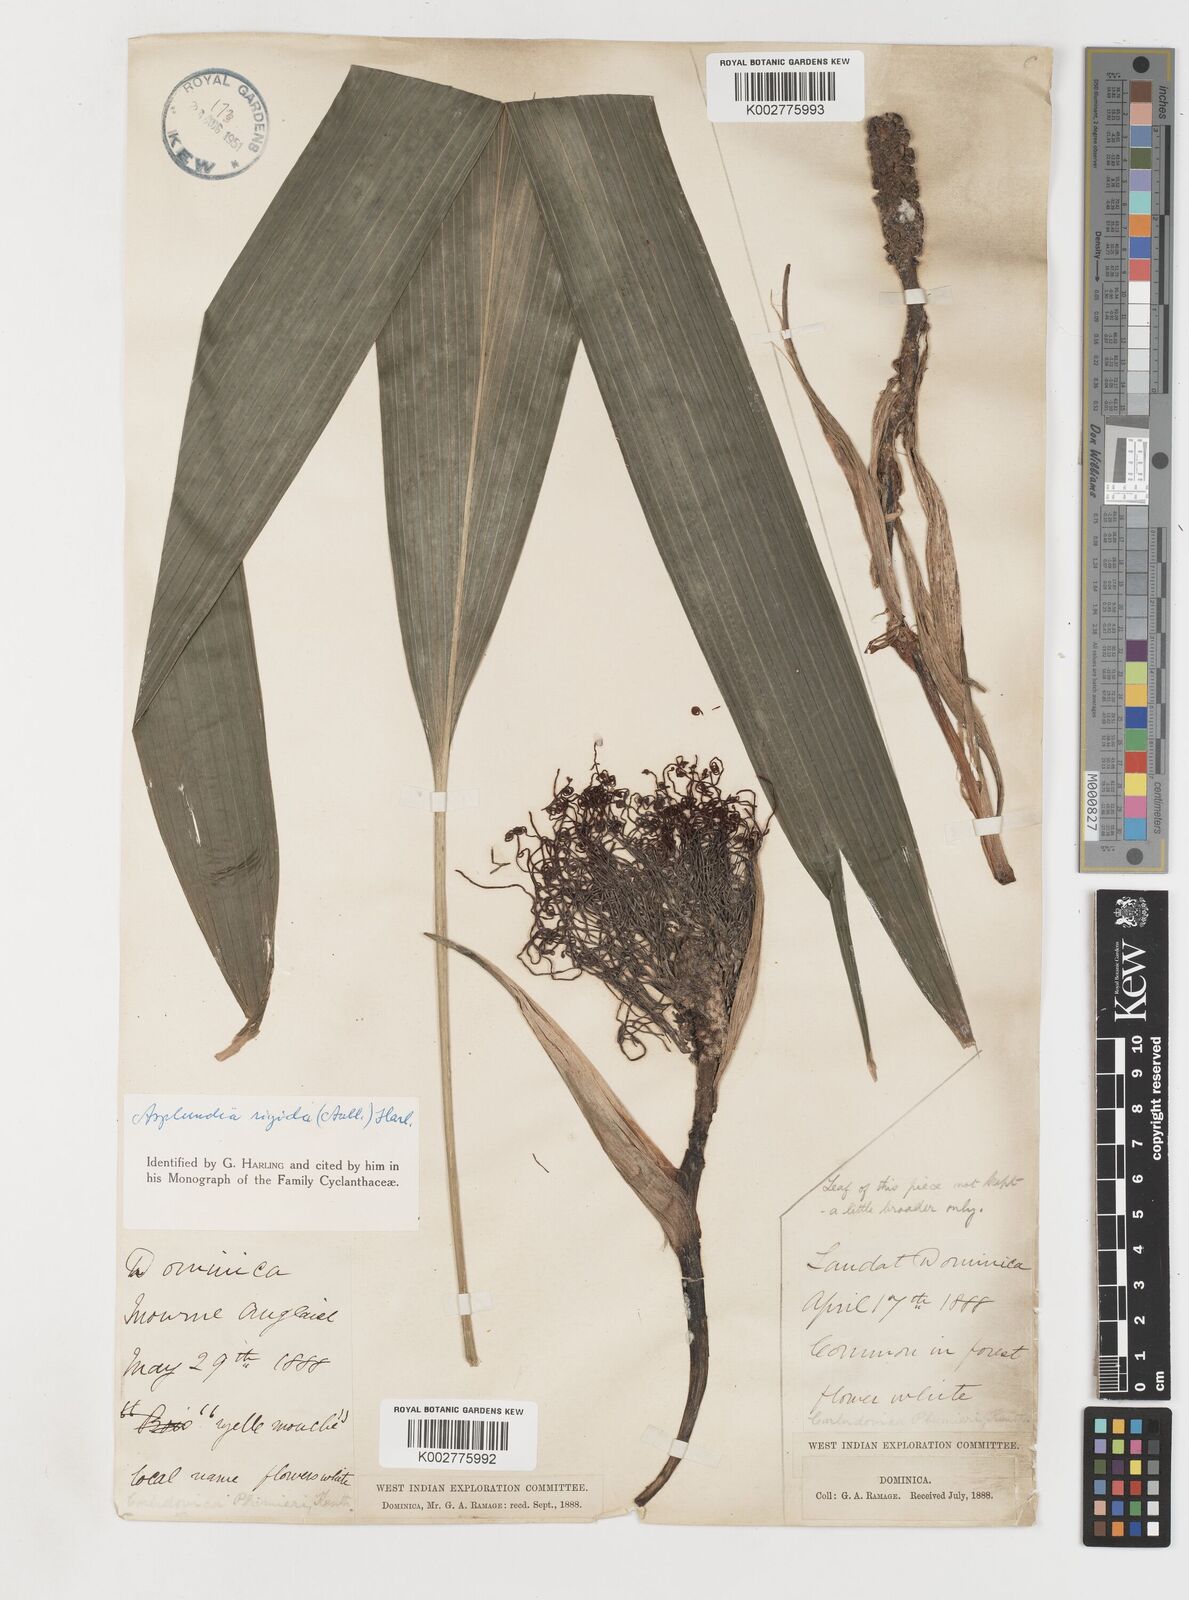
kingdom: Plantae
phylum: Tracheophyta
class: Liliopsida
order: Pandanales
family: Cyclanthaceae
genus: Asplundia
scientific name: Asplundia rigida
